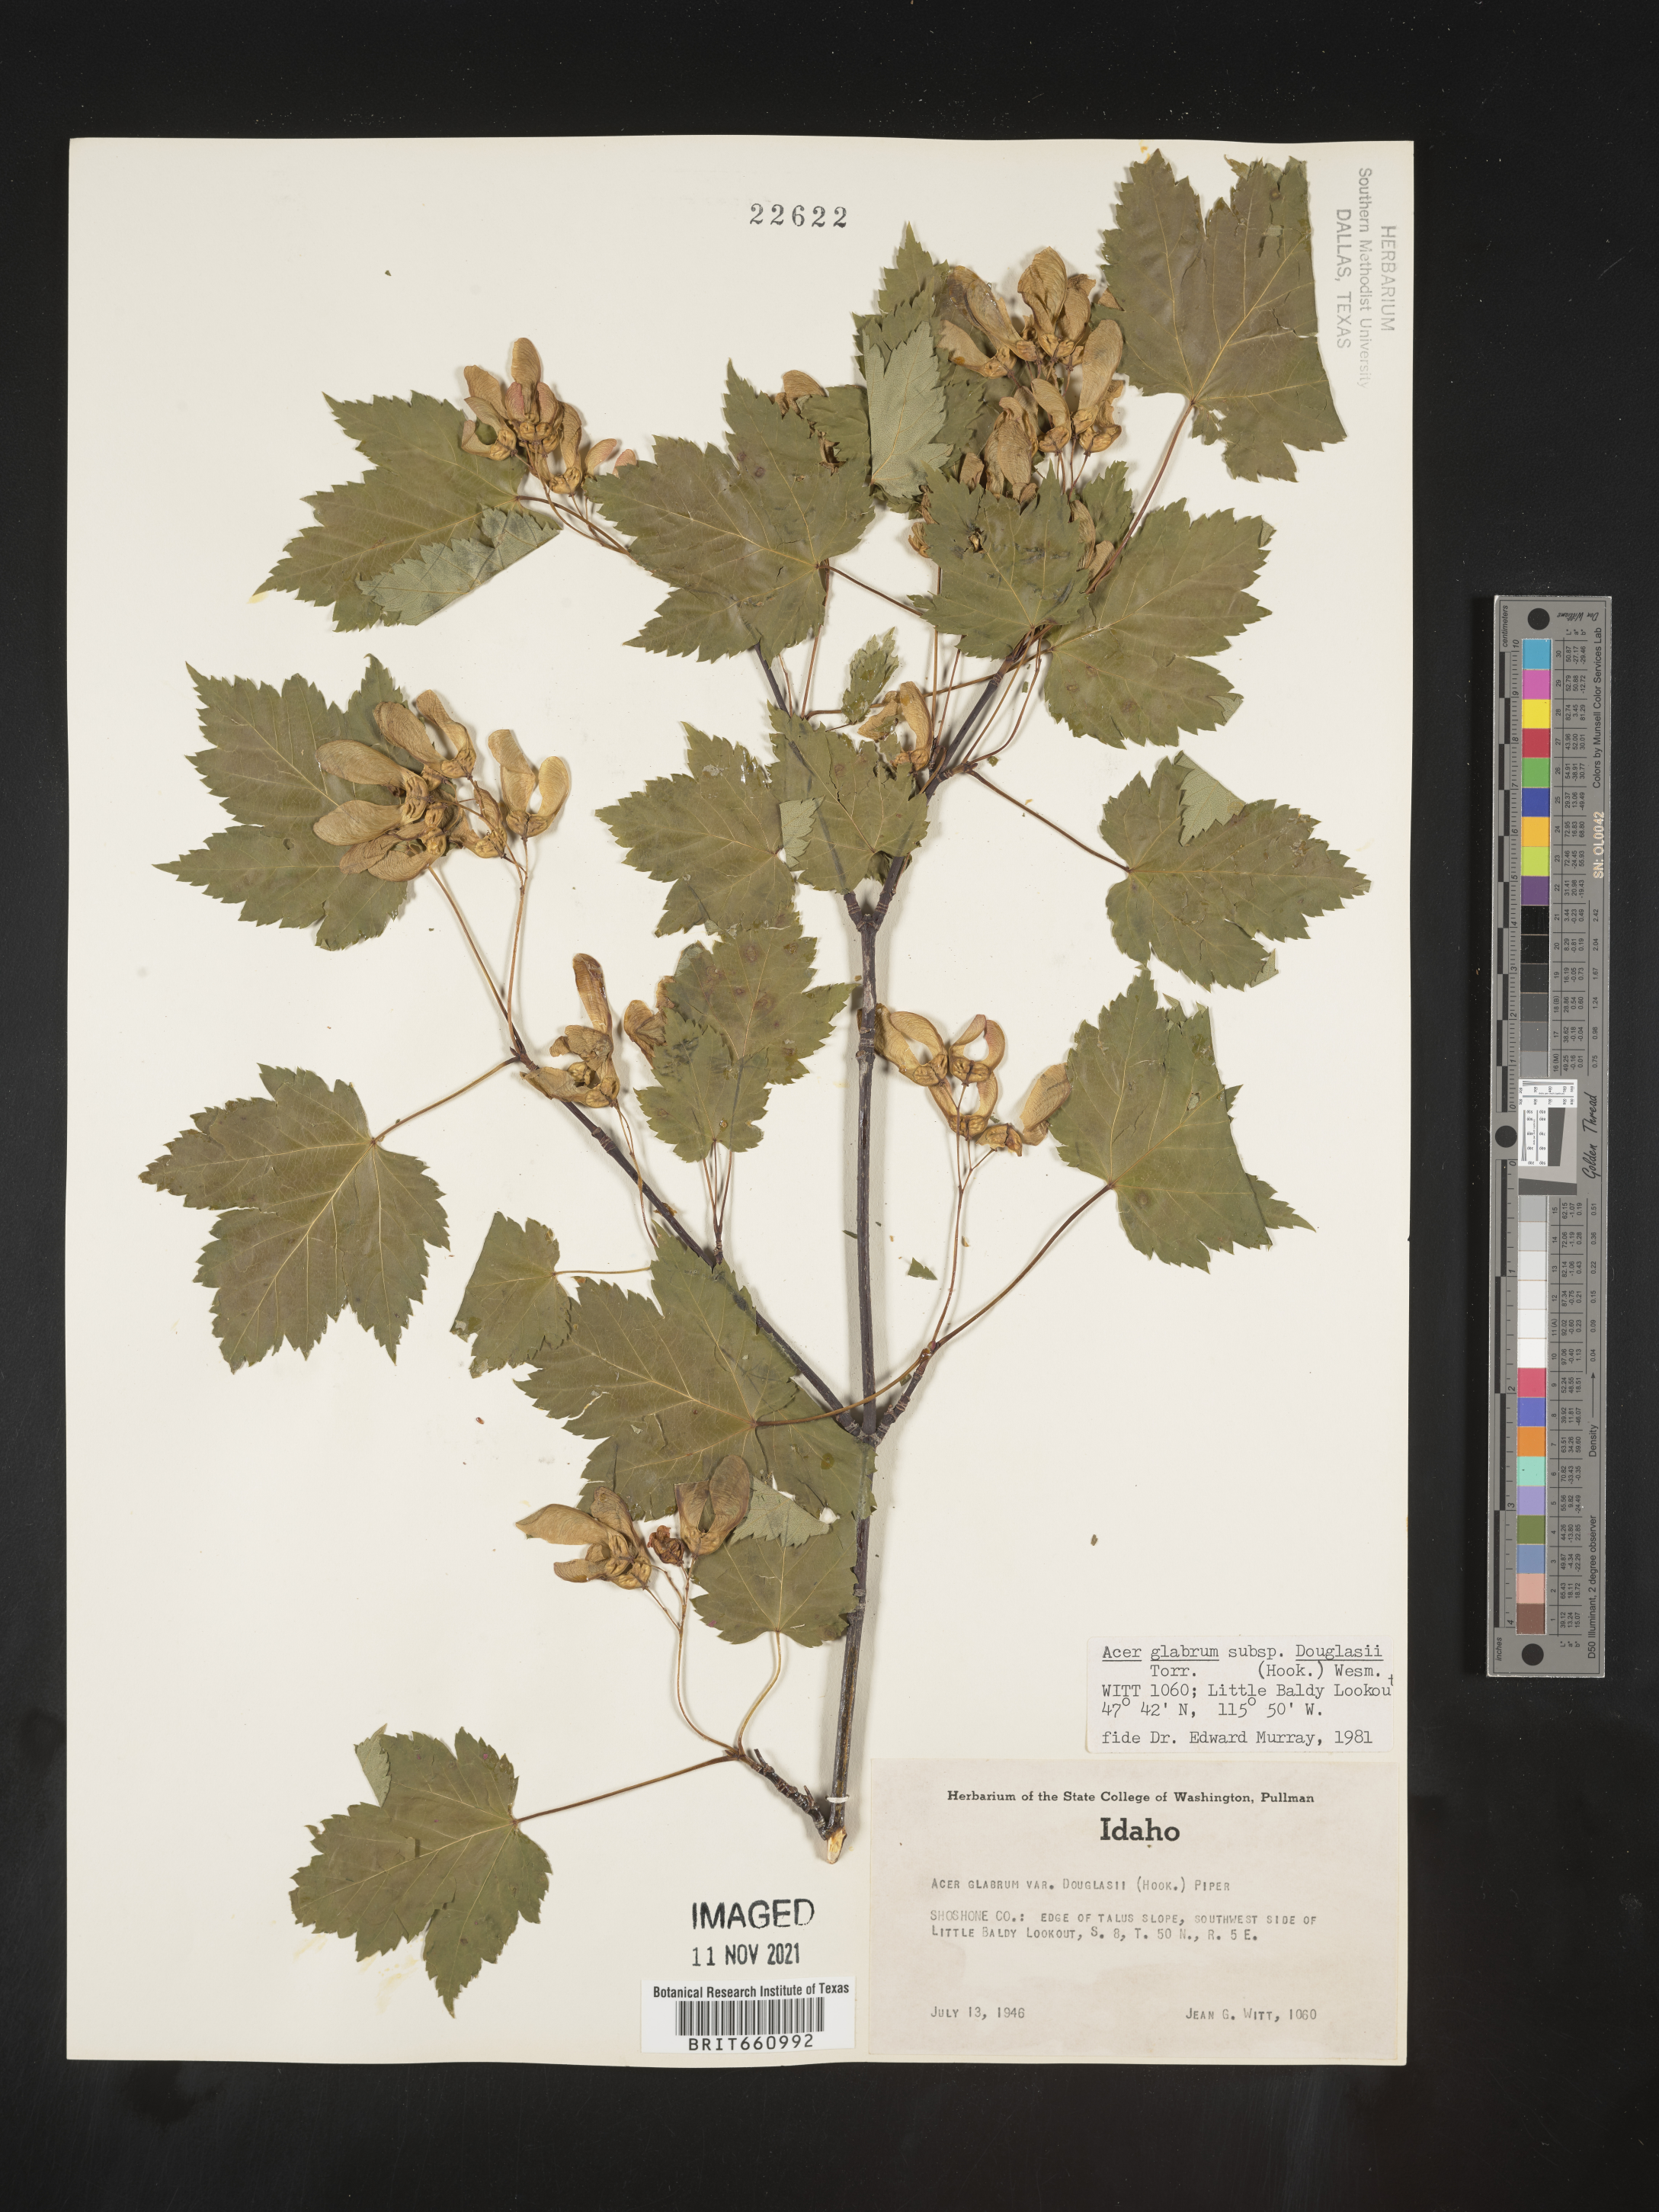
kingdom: Plantae
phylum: Tracheophyta
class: Magnoliopsida
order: Sapindales
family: Sapindaceae
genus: Acer
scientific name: Acer glabrum
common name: Rocky mountain maple
